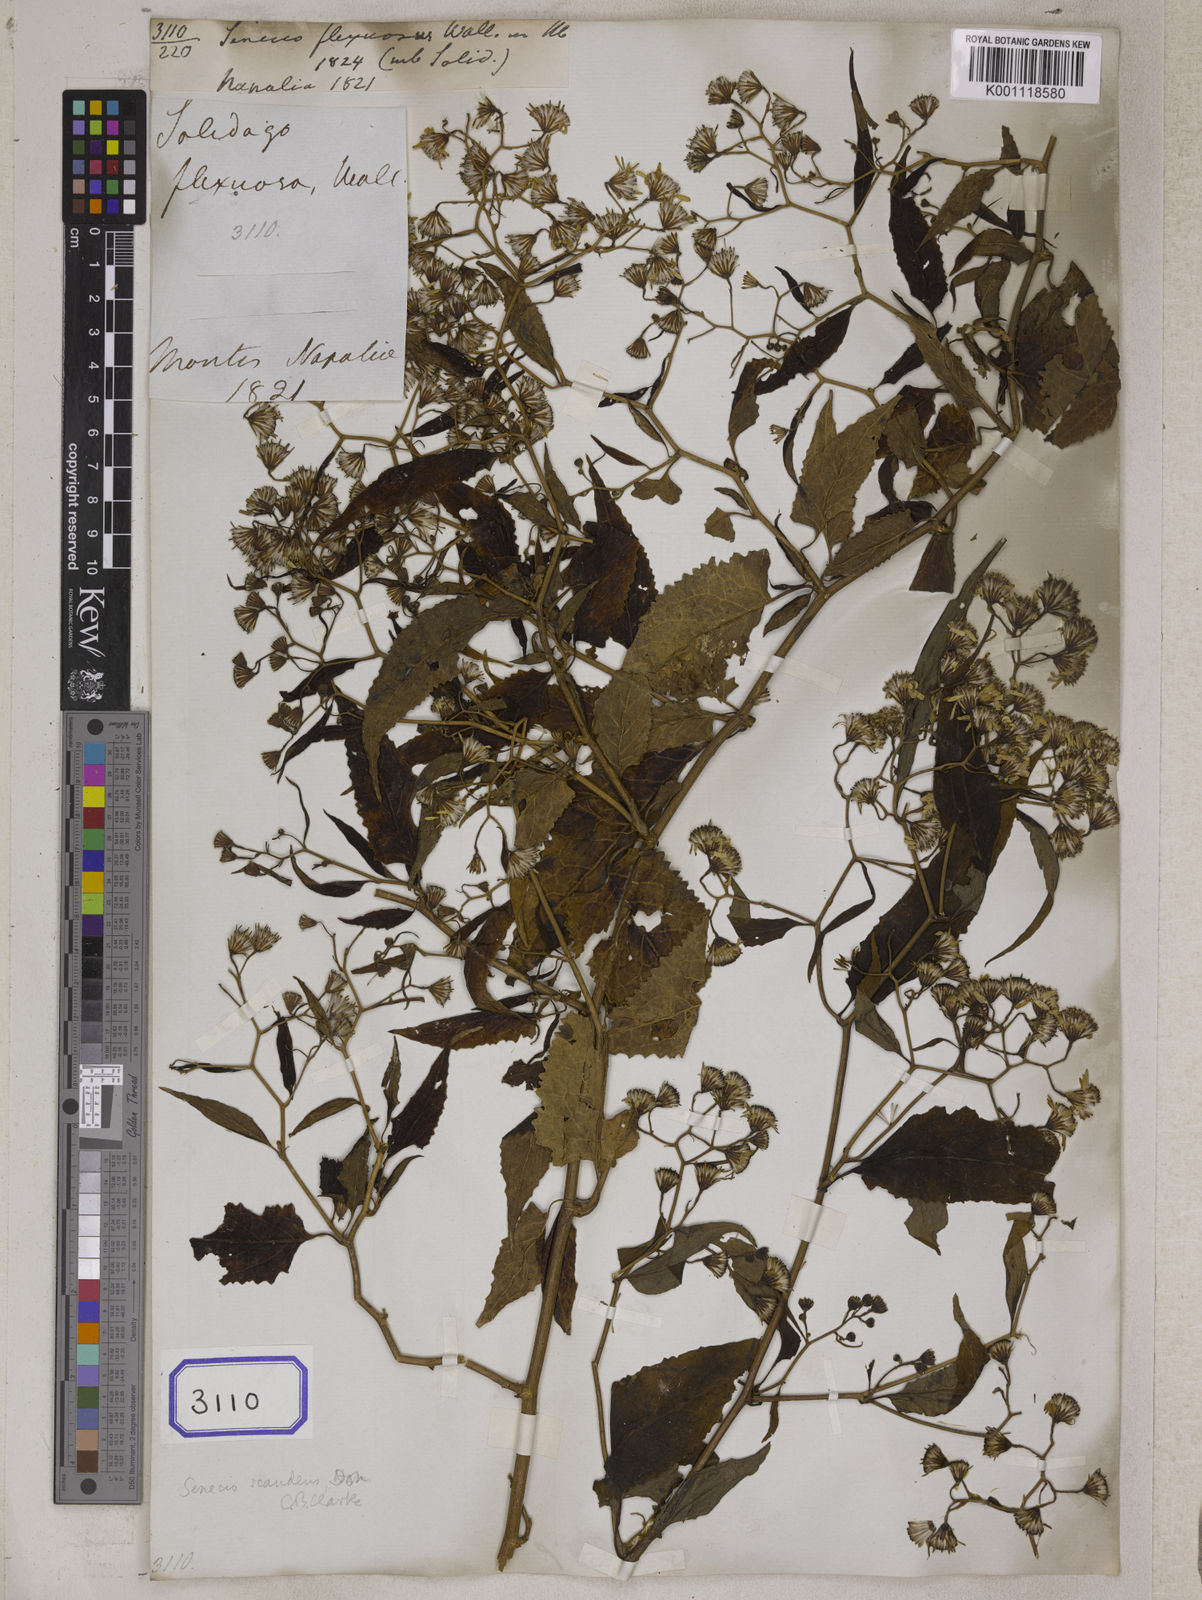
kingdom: Plantae
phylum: Tracheophyta
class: Magnoliopsida
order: Asterales
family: Asteraceae
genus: Senecio
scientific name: Senecio scandens
